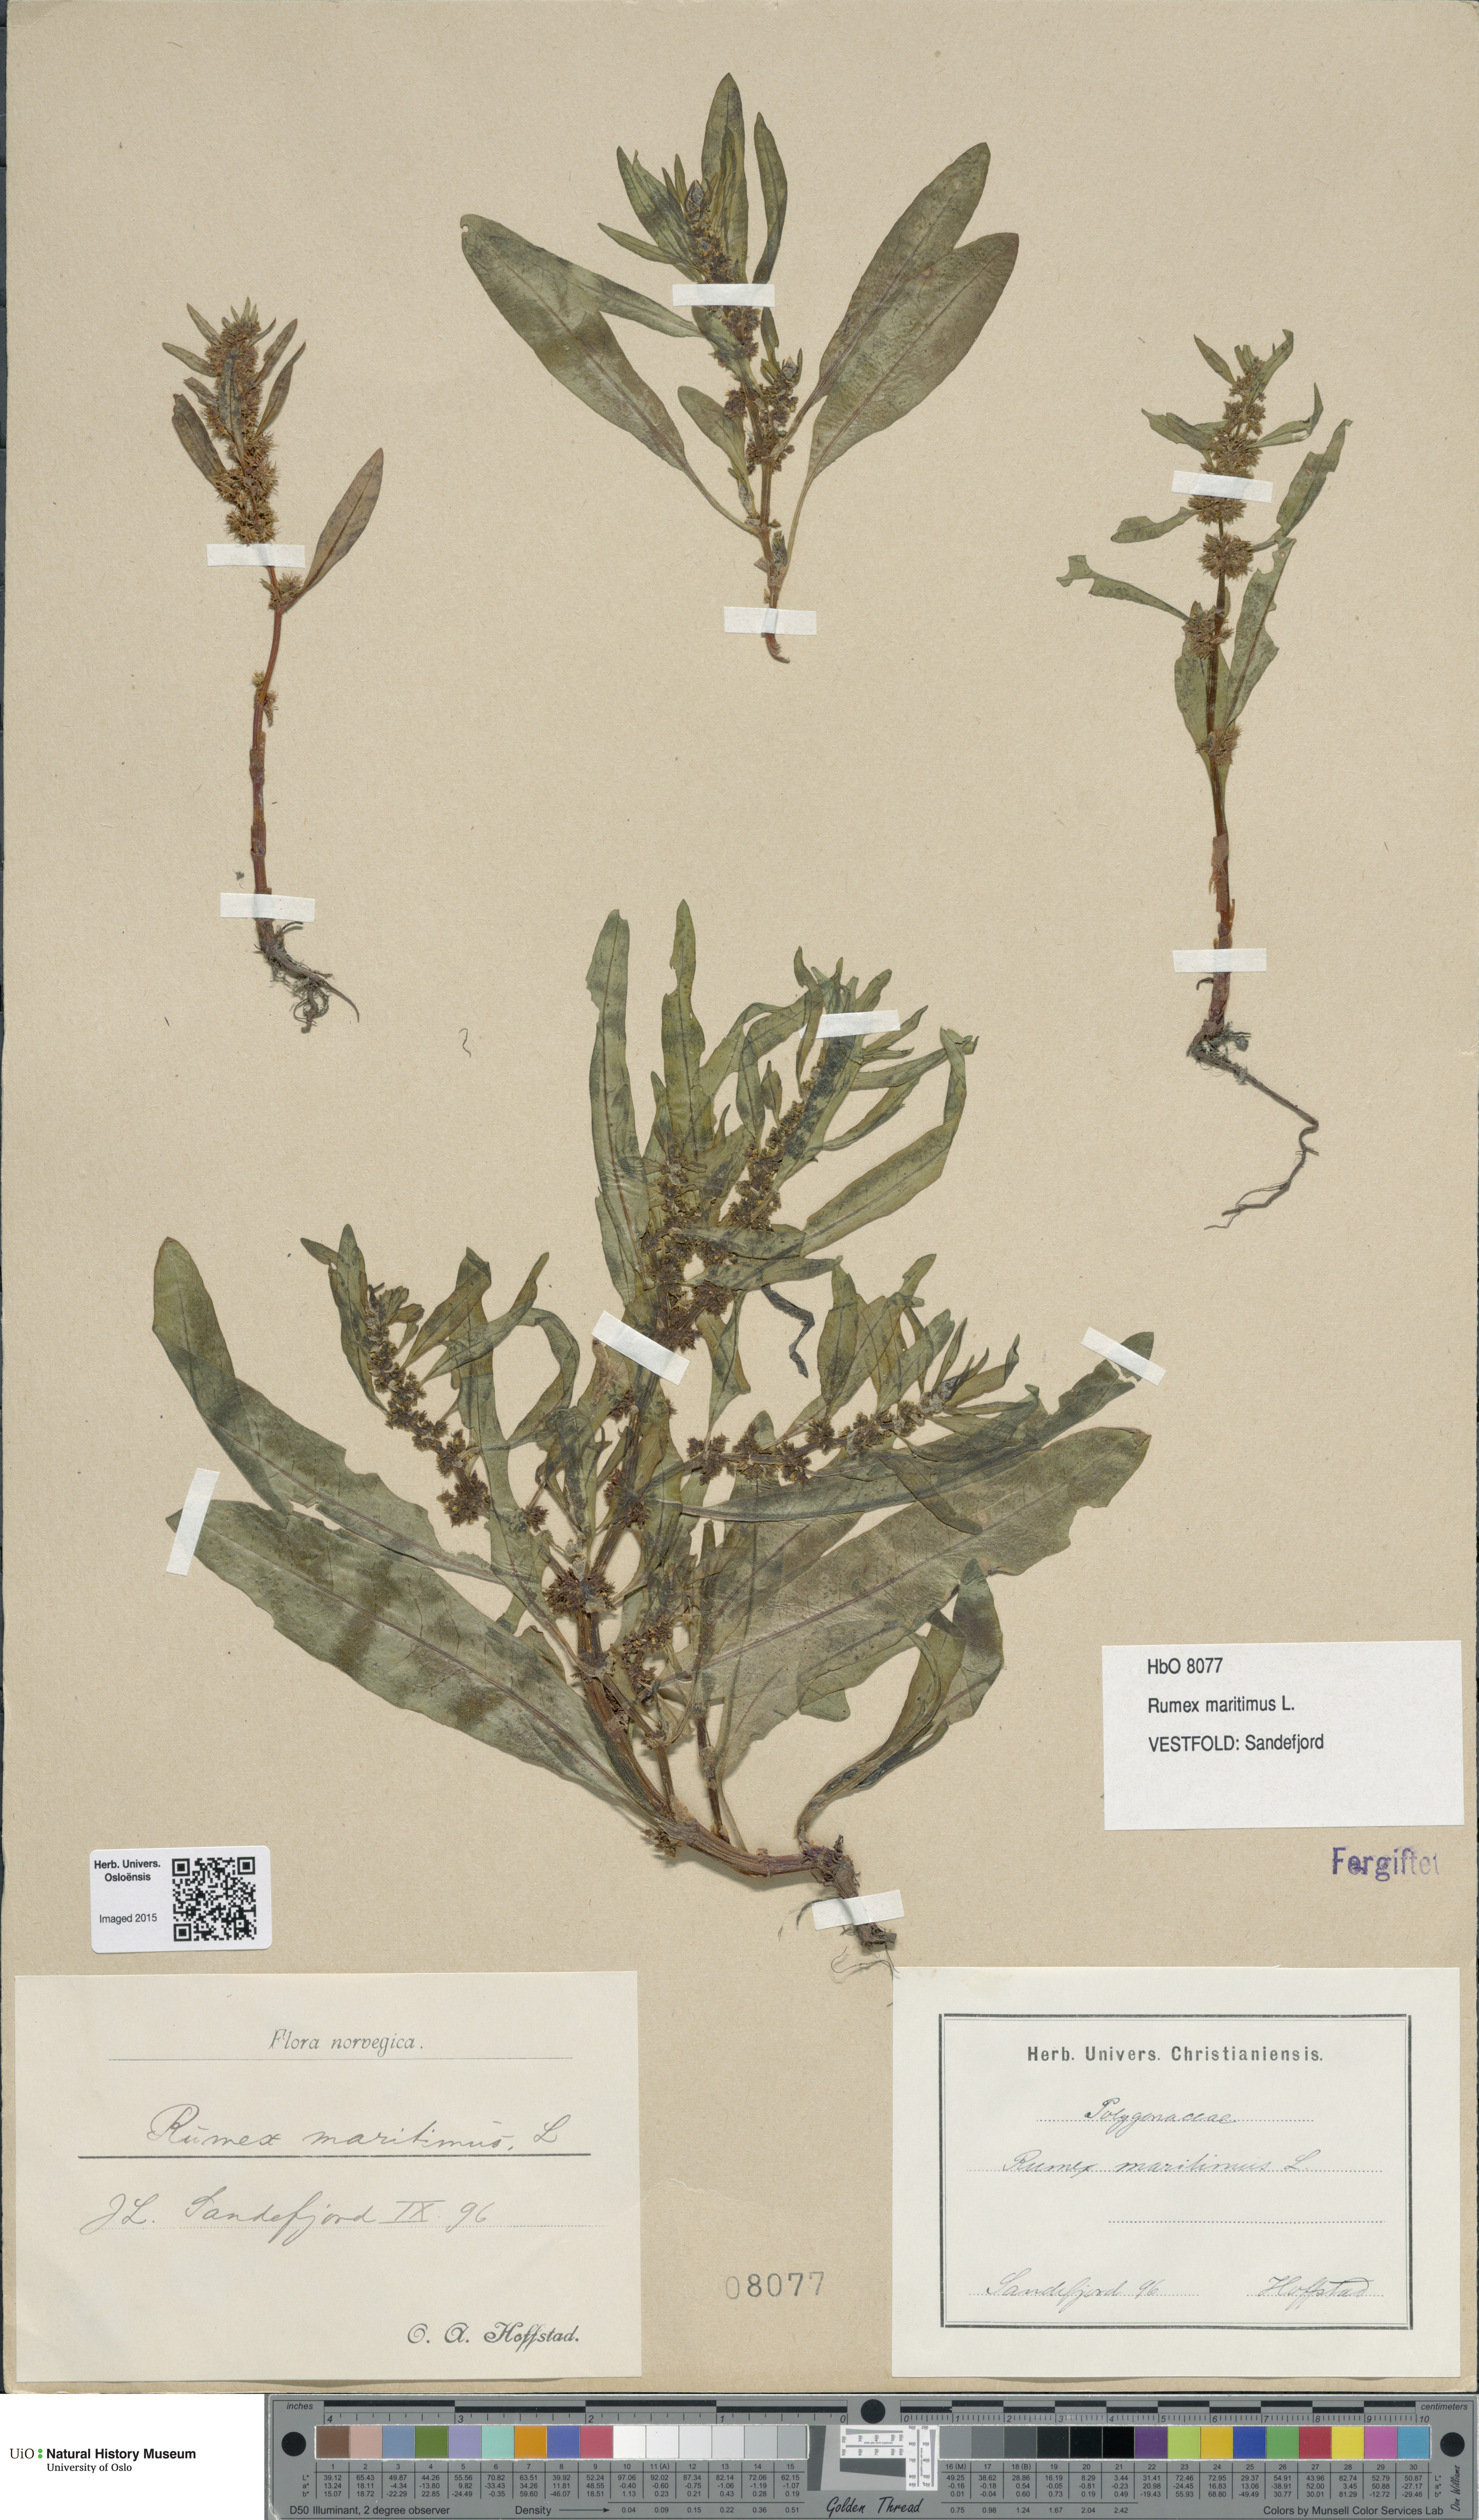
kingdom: Plantae
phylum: Tracheophyta
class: Magnoliopsida
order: Caryophyllales
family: Polygonaceae
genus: Rumex
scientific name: Rumex maritimus
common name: Golden dock
